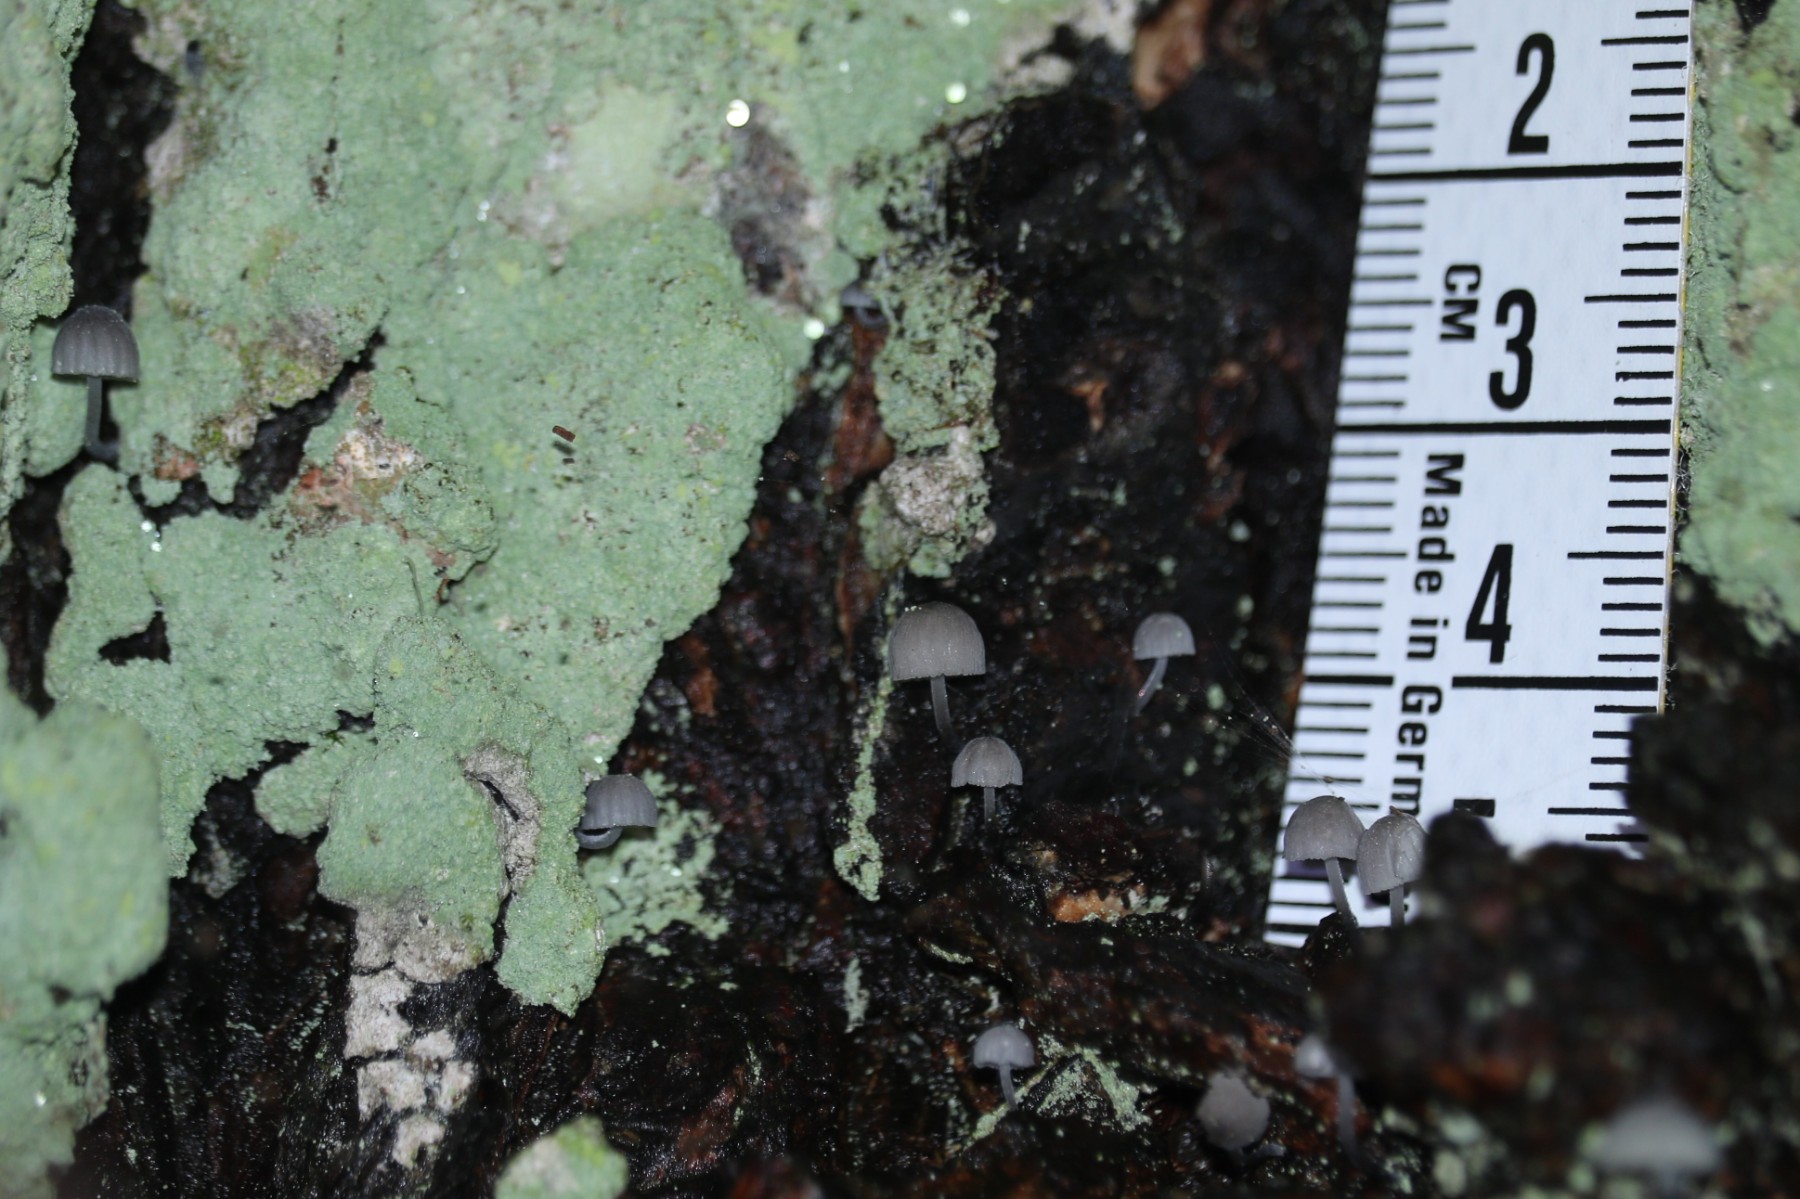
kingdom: Fungi
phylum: Basidiomycota
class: Agaricomycetes
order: Agaricales
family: Mycenaceae
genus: Mycena
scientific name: Mycena pseudocorticola
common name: gråblå bark-huesvamp
